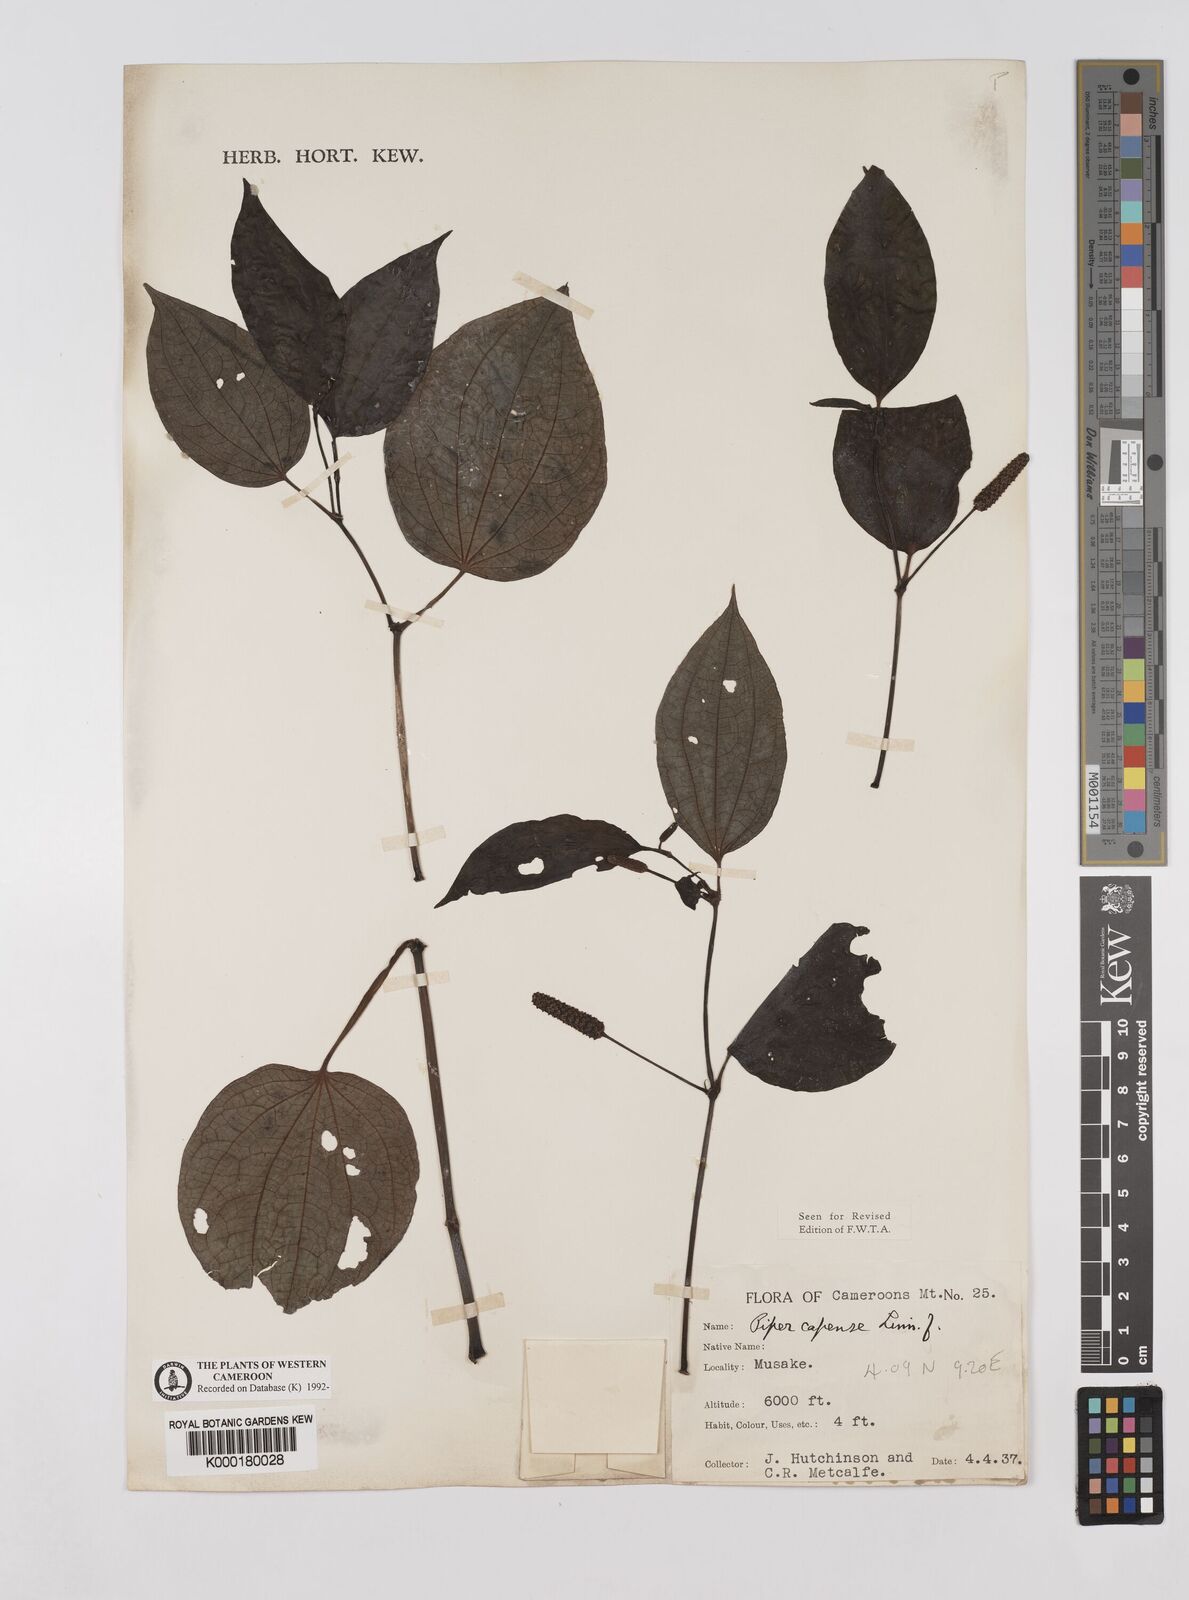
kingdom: Plantae
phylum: Tracheophyta
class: Magnoliopsida
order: Piperales
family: Piperaceae
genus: Piper
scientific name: Piper capense
